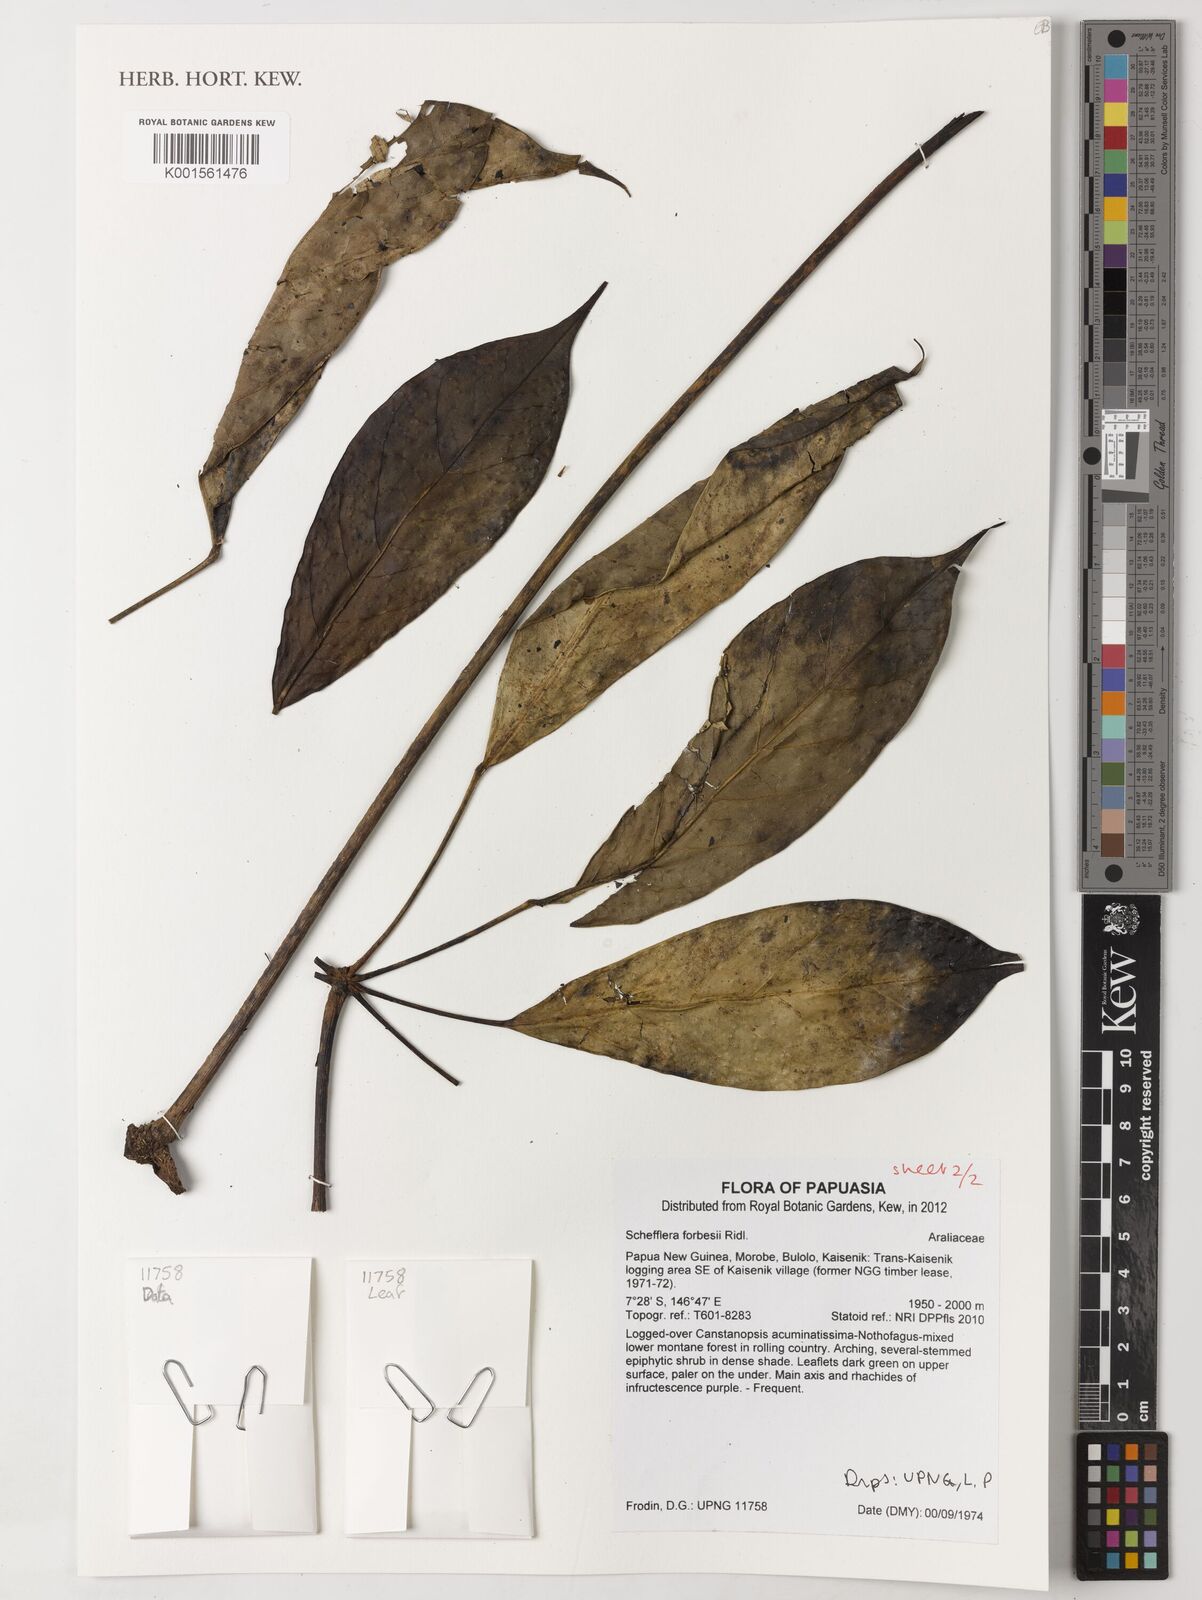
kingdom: Plantae
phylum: Tracheophyta
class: Magnoliopsida
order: Apiales
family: Araliaceae
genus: Heptapleurum
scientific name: Heptapleurum forbesii
